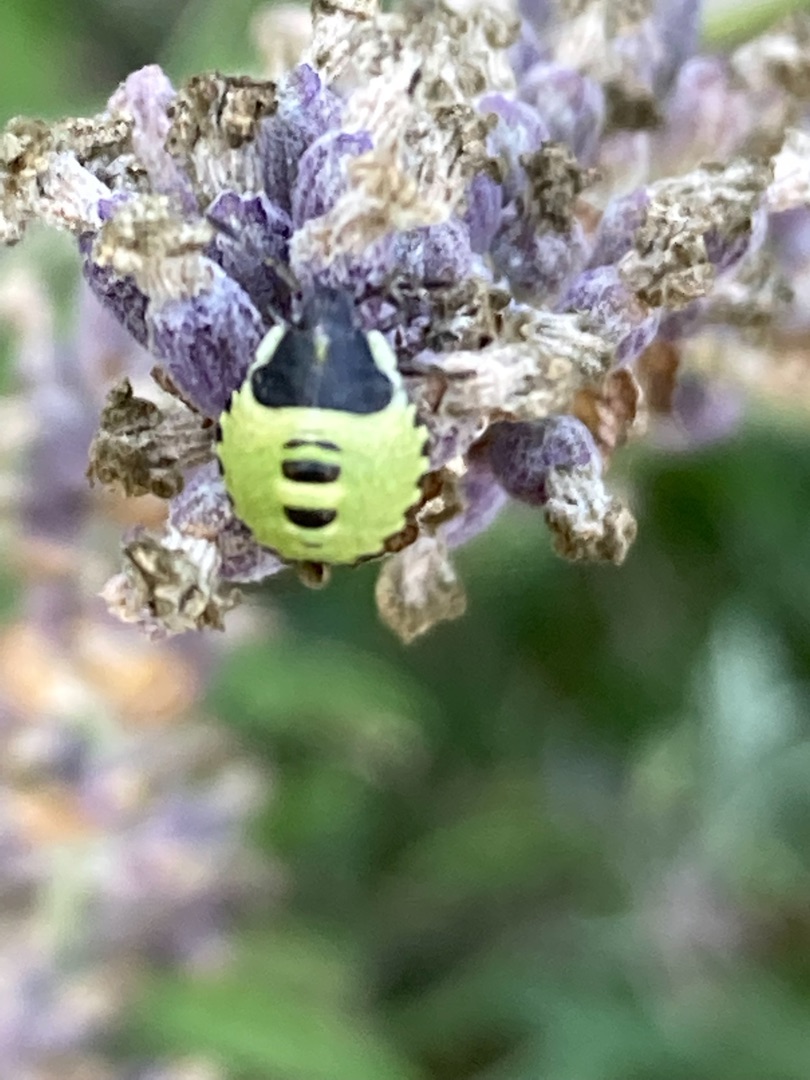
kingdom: Animalia
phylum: Arthropoda
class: Insecta
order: Hemiptera
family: Pentatomidae
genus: Palomena
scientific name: Palomena prasina
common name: Grøn bredtæge
